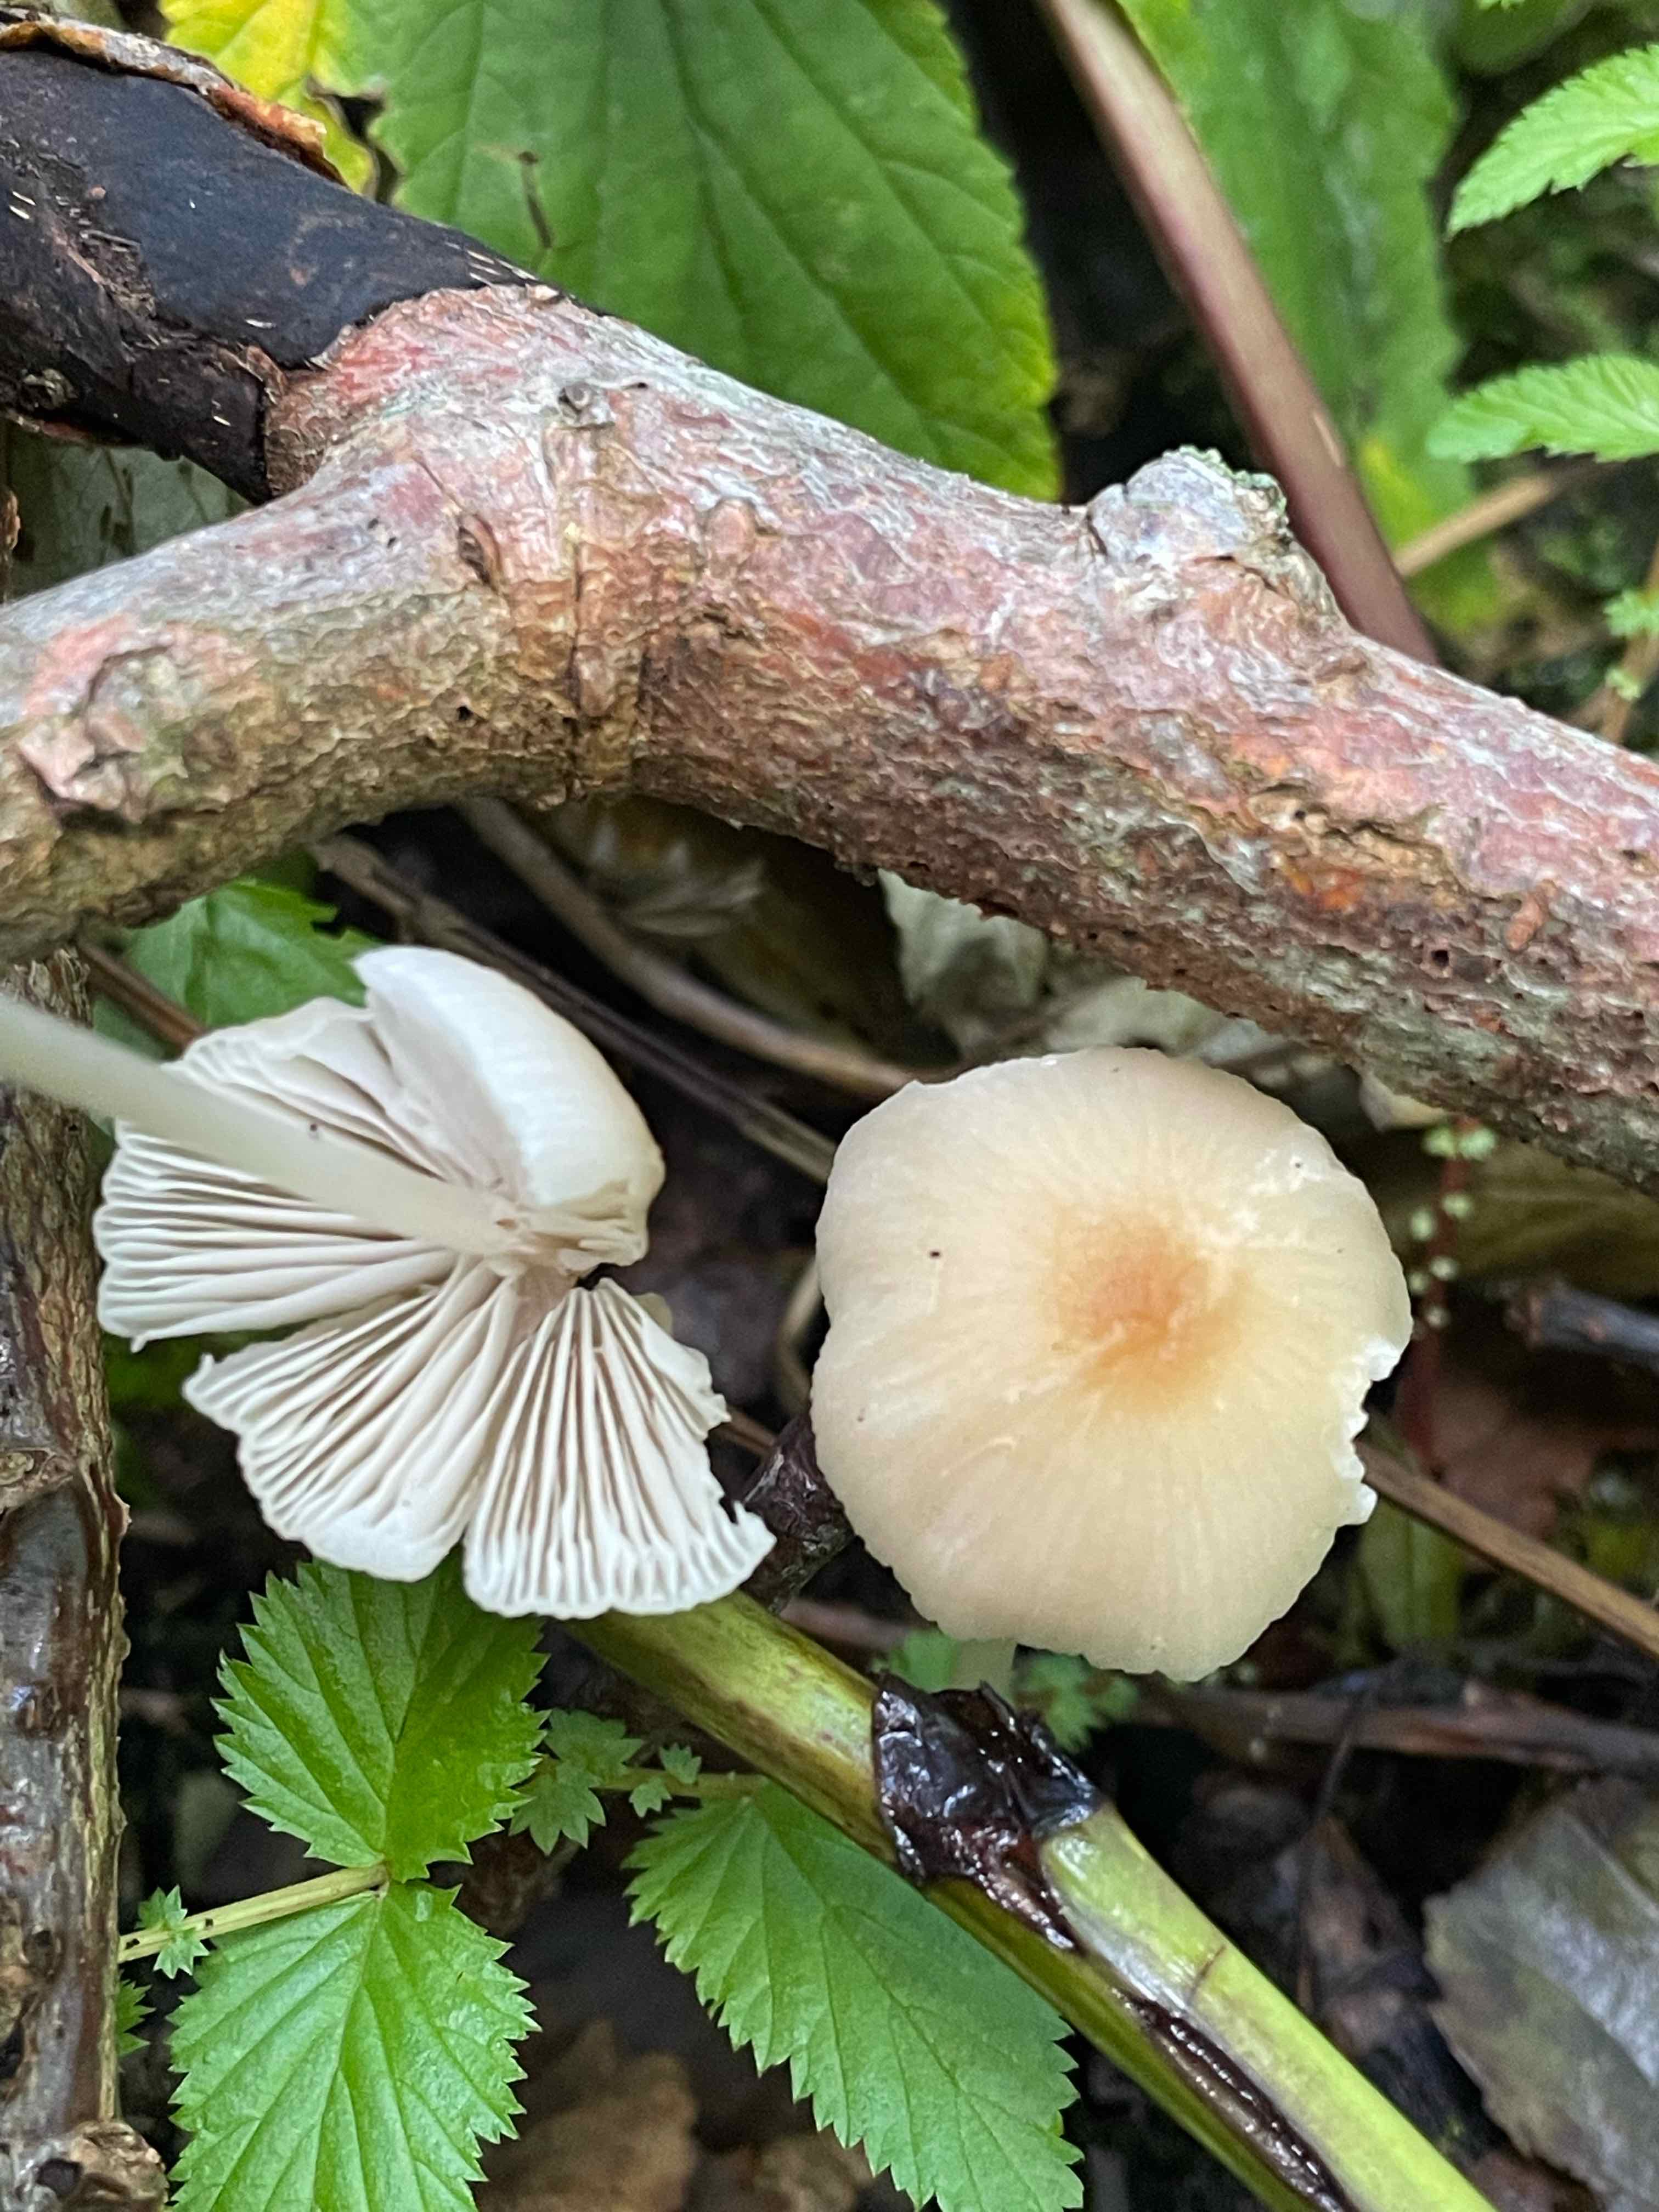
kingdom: Fungi
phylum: Basidiomycota
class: Agaricomycetes
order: Agaricales
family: Psathyrellaceae
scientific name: Psathyrellaceae
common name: mørkhatfamilien
